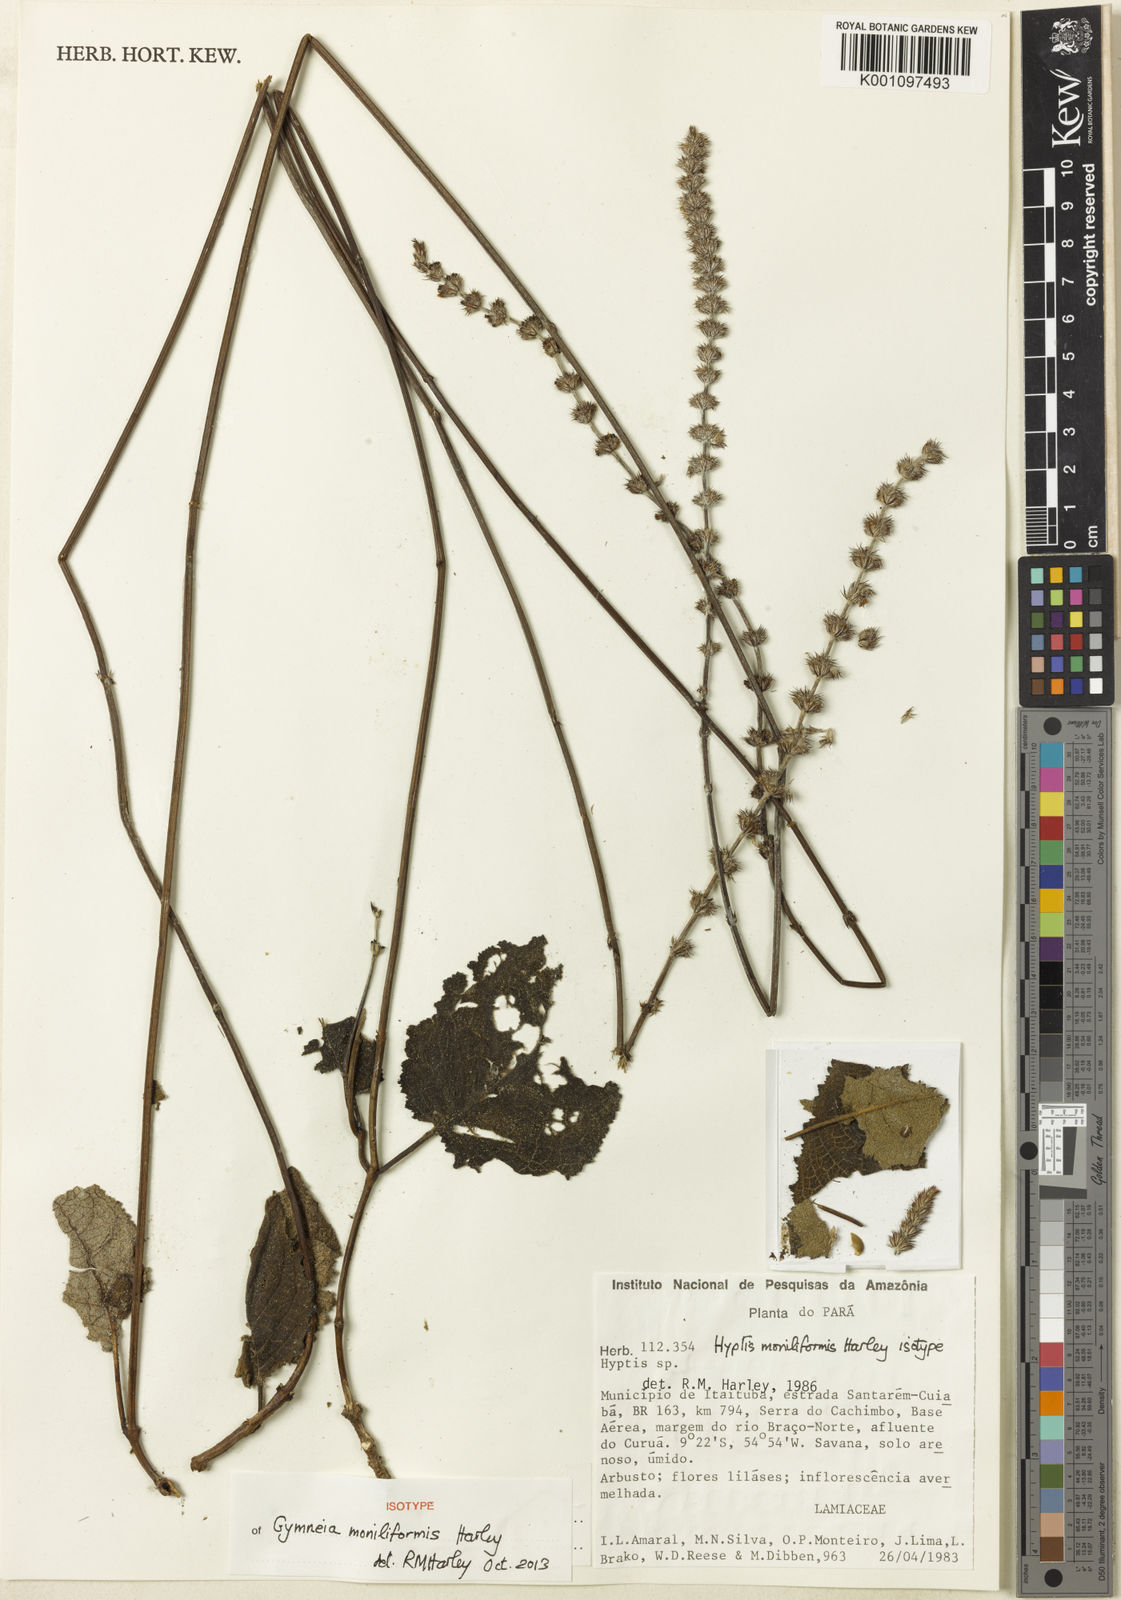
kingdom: Plantae
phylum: Tracheophyta
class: Magnoliopsida
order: Lamiales
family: Lamiaceae
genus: Gymneia
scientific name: Gymneia moniliformis
